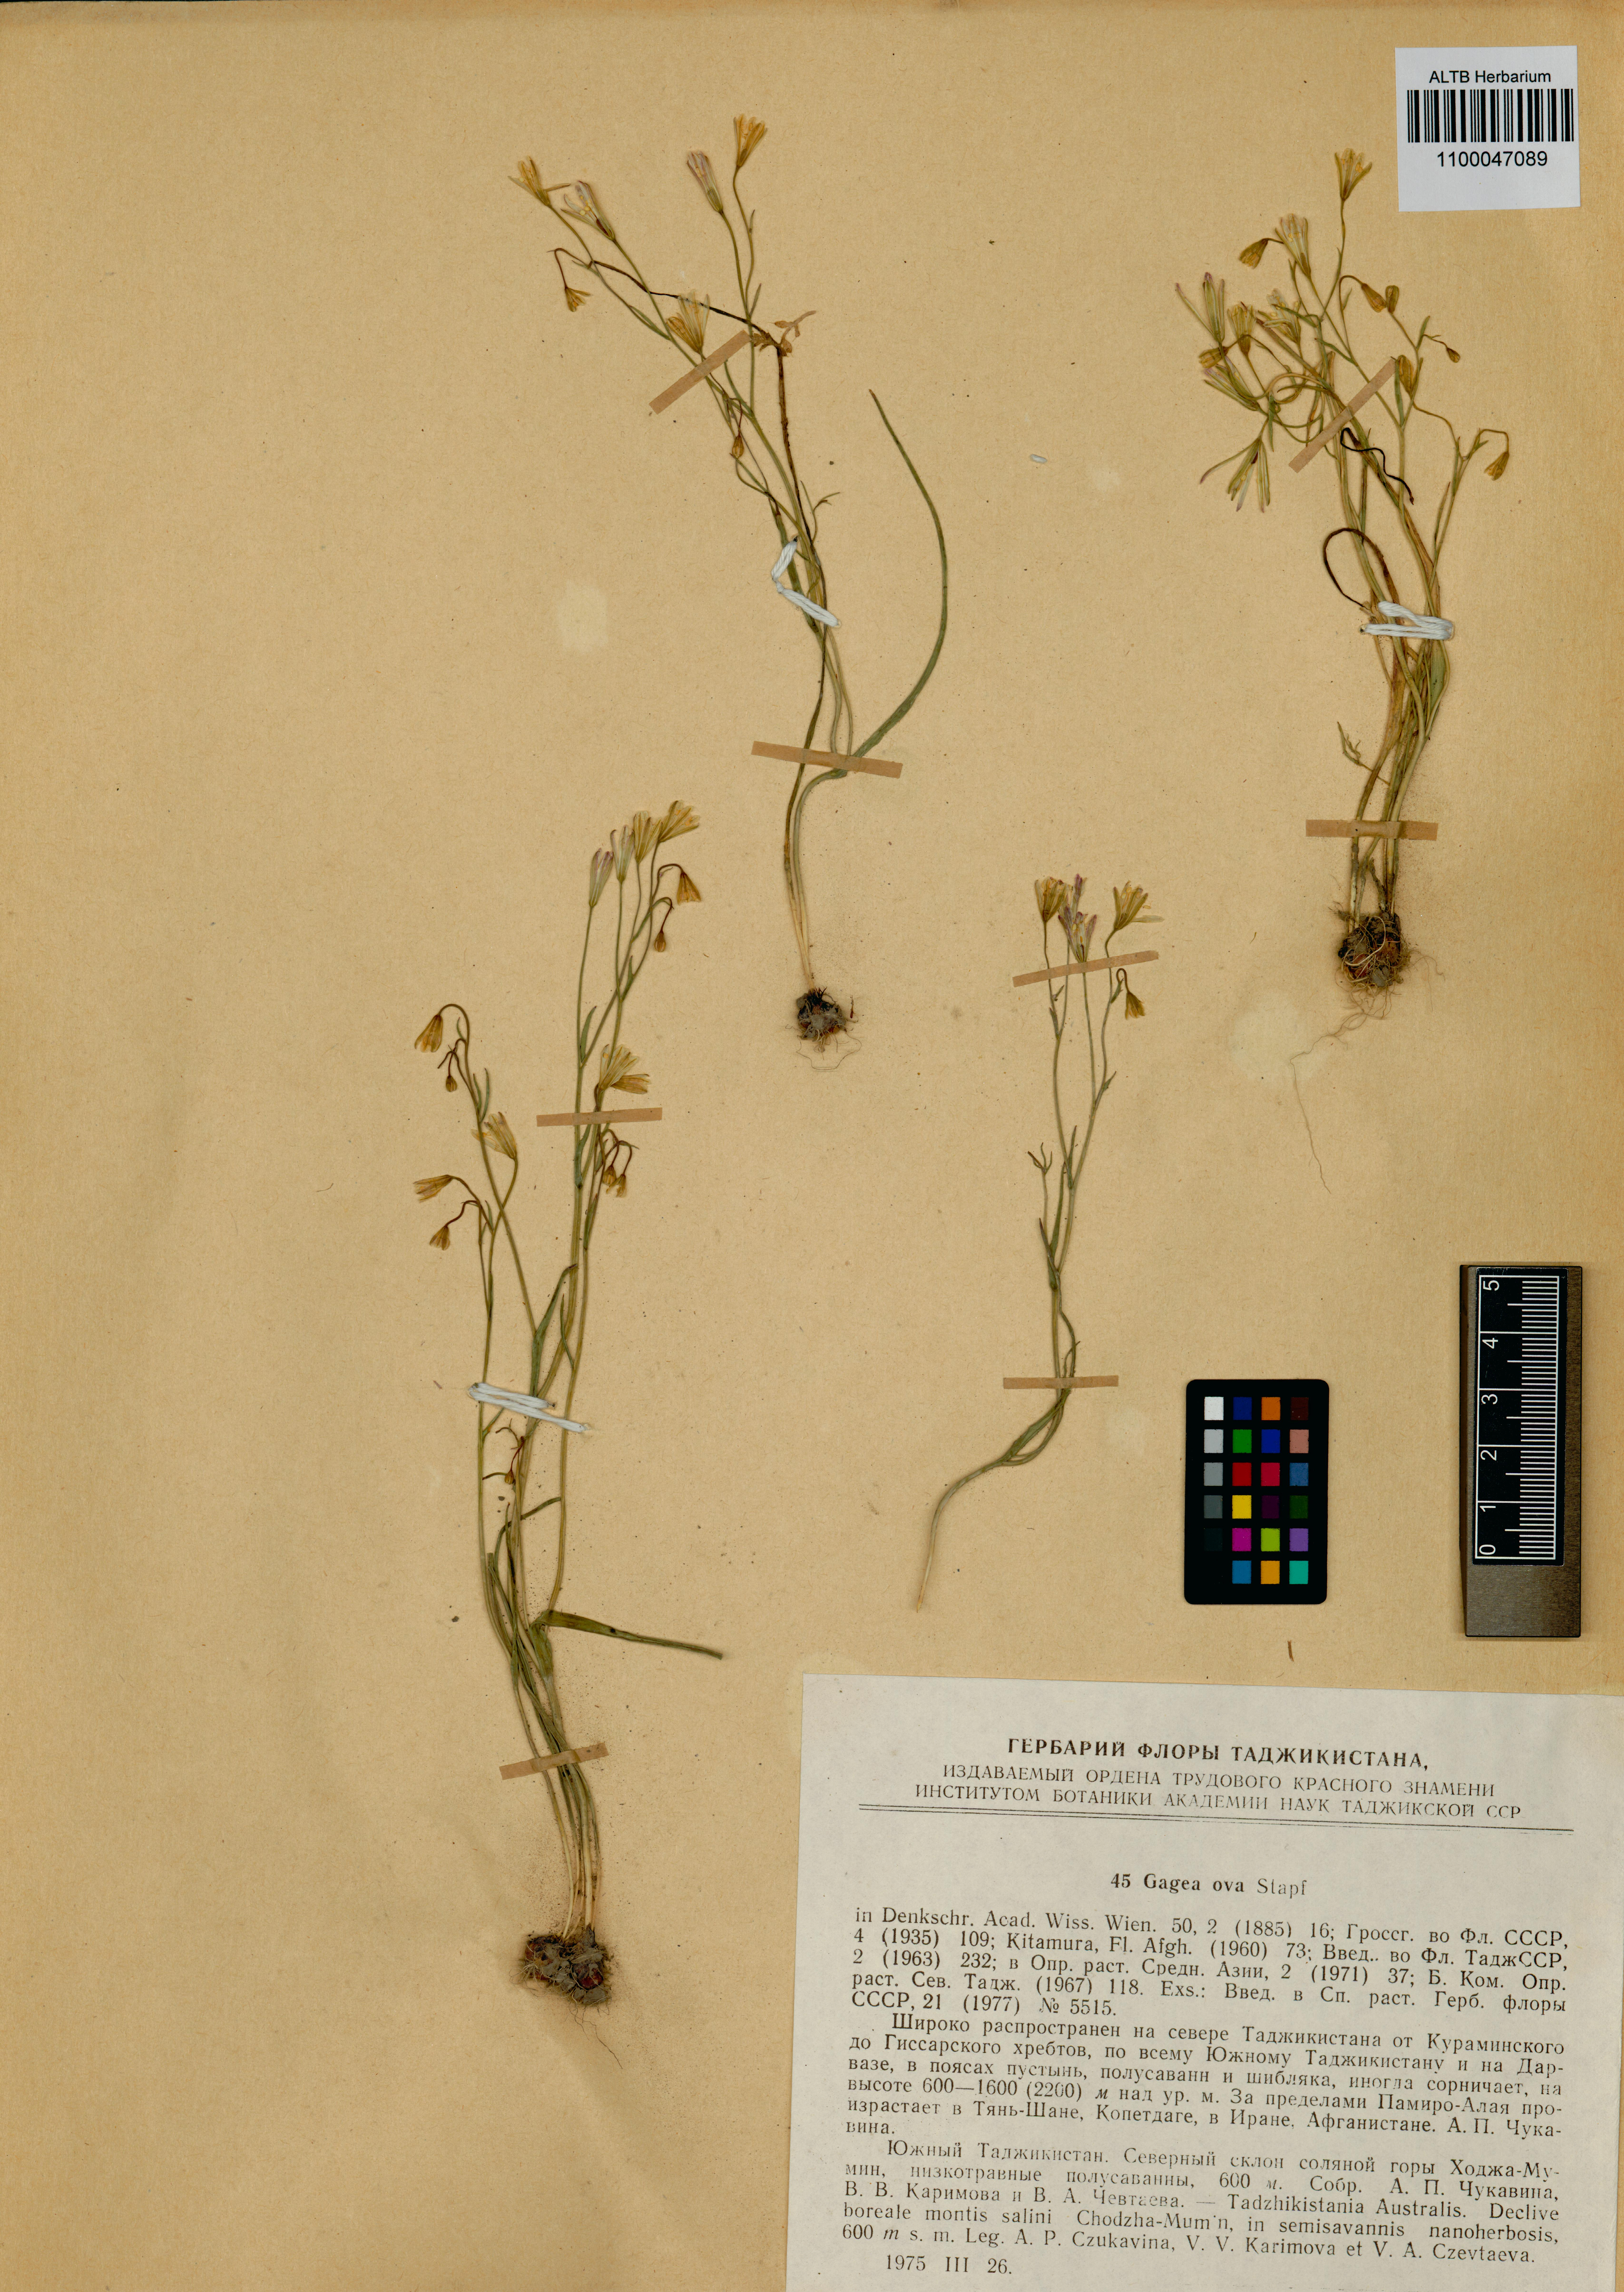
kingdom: Plantae
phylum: Tracheophyta
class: Liliopsida
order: Liliales
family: Liliaceae
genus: Gagea
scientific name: Gagea kunawurensis
